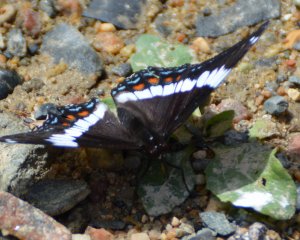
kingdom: Animalia
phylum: Arthropoda
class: Insecta
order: Lepidoptera
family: Nymphalidae
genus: Limenitis
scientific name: Limenitis arthemis
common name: Red-spotted Admiral
